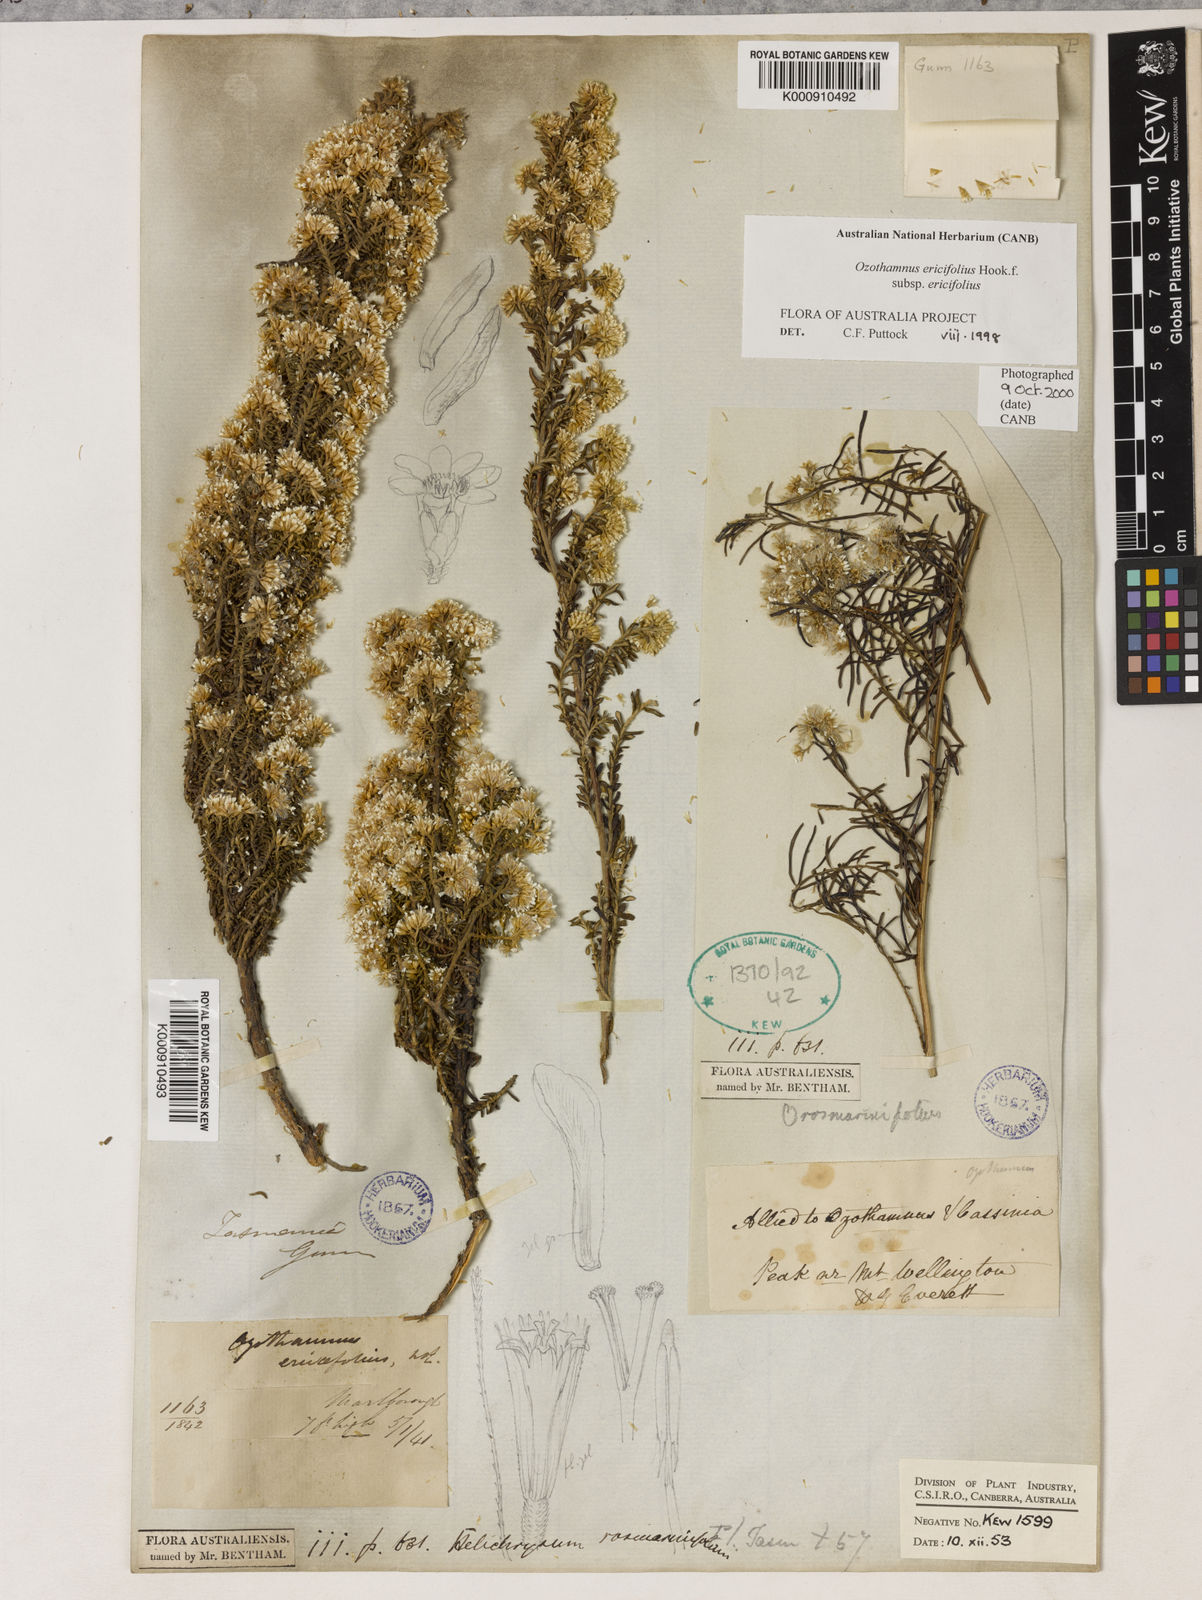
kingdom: Plantae
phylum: Tracheophyta
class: Magnoliopsida
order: Asterales
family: Asteraceae
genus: Ozothamnus
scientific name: Ozothamnus ericifolius
